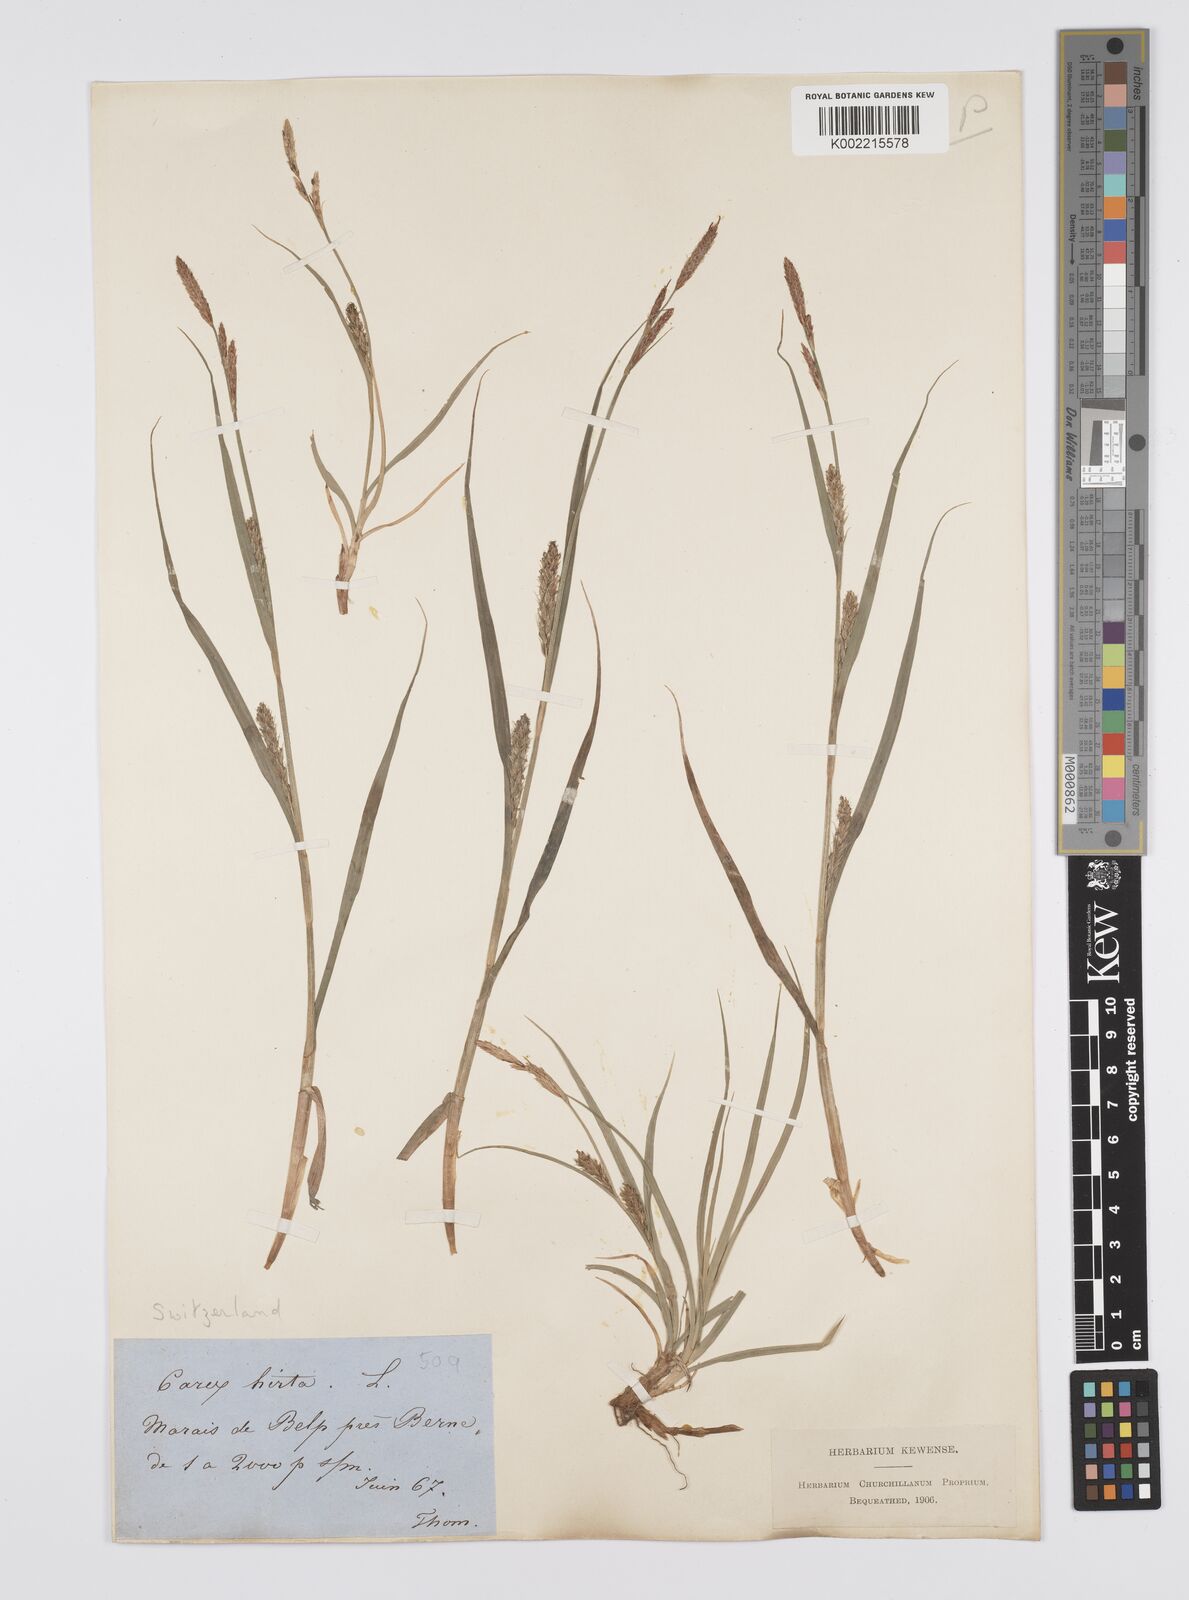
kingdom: Plantae
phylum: Tracheophyta
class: Liliopsida
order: Poales
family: Cyperaceae
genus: Carex
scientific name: Carex hirta
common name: Hairy sedge
